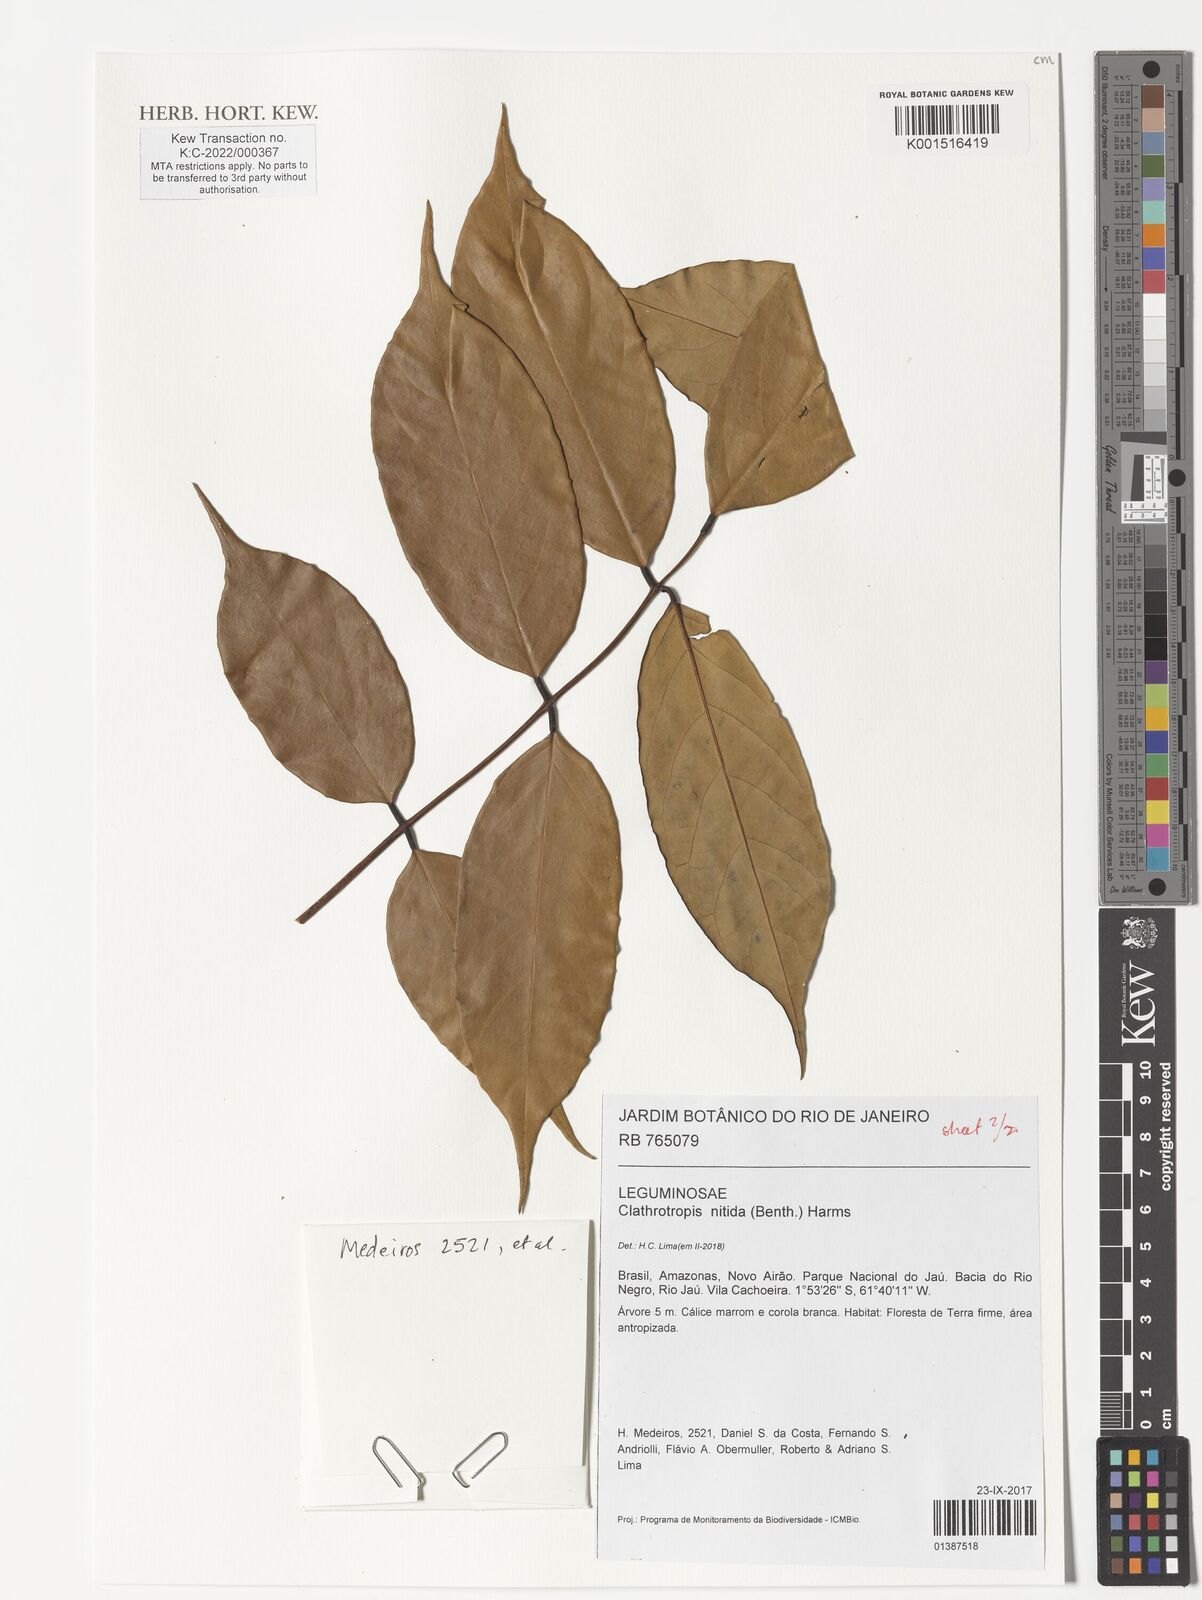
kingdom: Plantae
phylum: Tracheophyta
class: Magnoliopsida
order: Fabales
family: Fabaceae
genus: Clathrotropis
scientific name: Clathrotropis nitida
